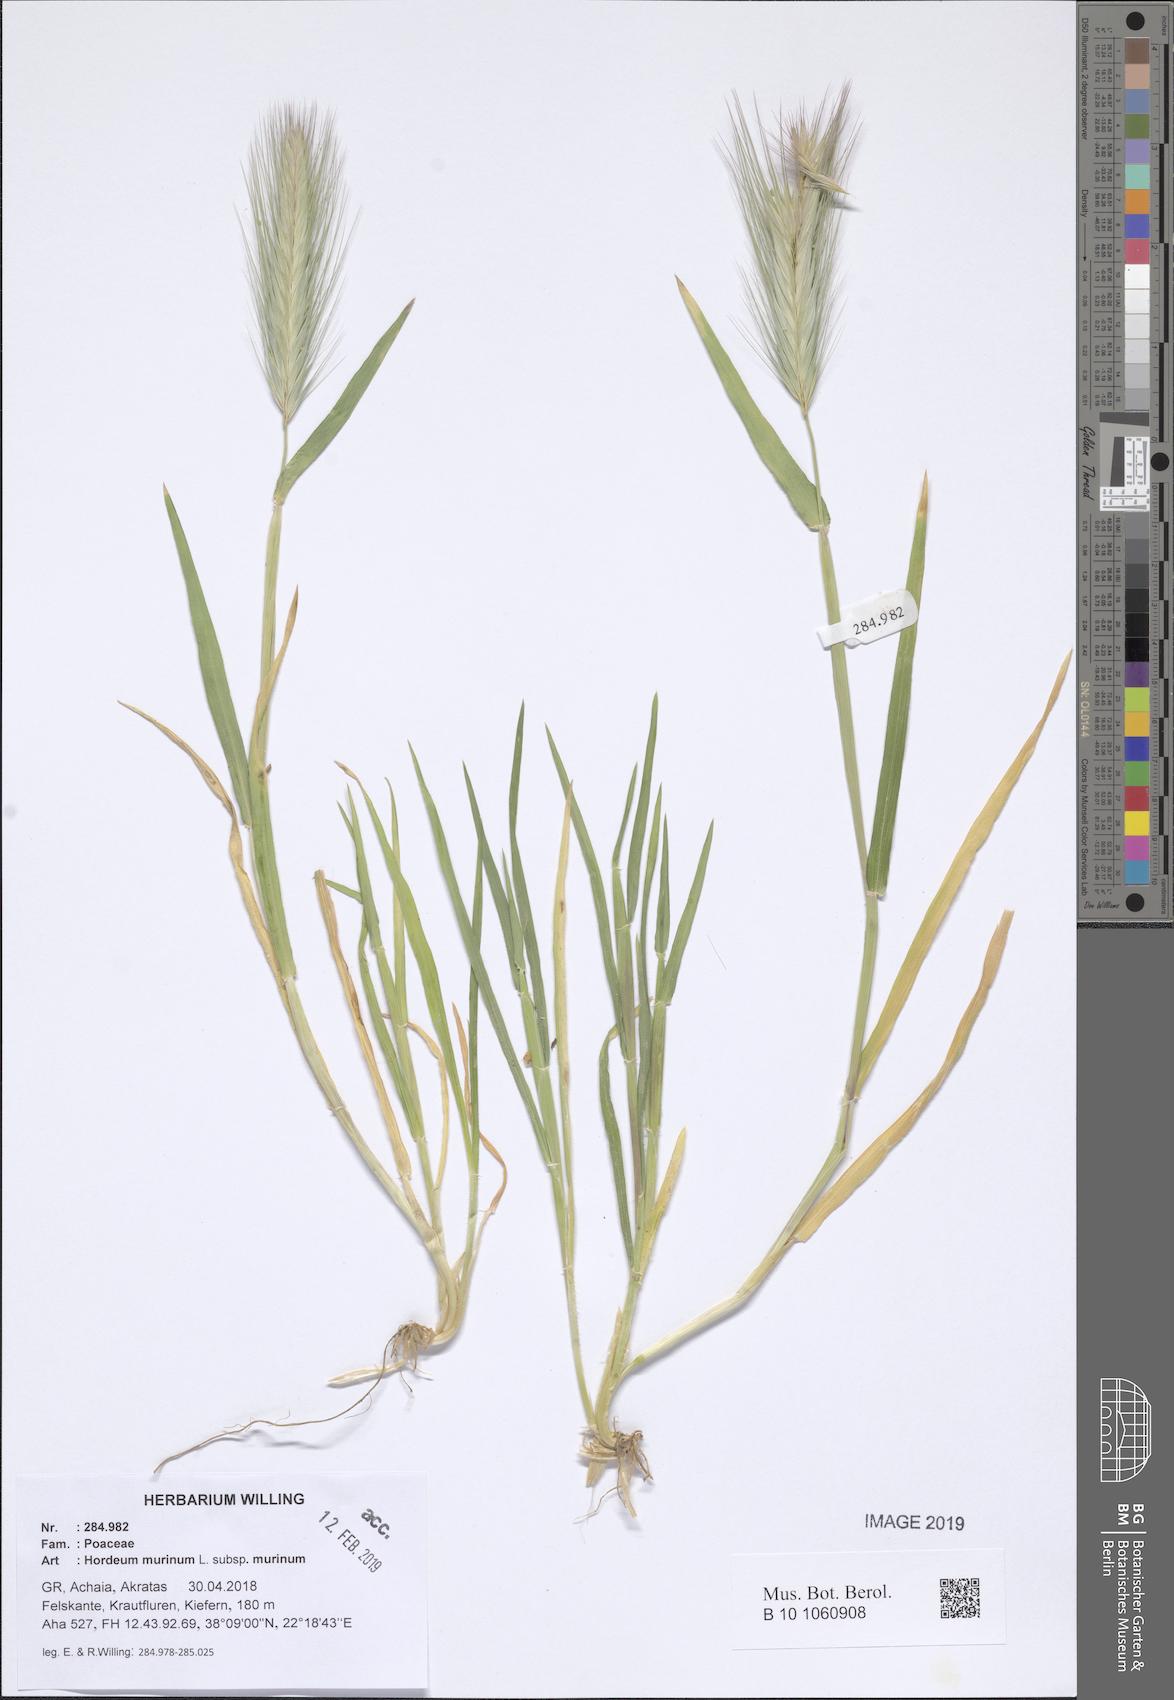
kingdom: Plantae
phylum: Tracheophyta
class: Liliopsida
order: Poales
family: Poaceae
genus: Hordeum
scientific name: Hordeum murinum
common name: Wall barley
